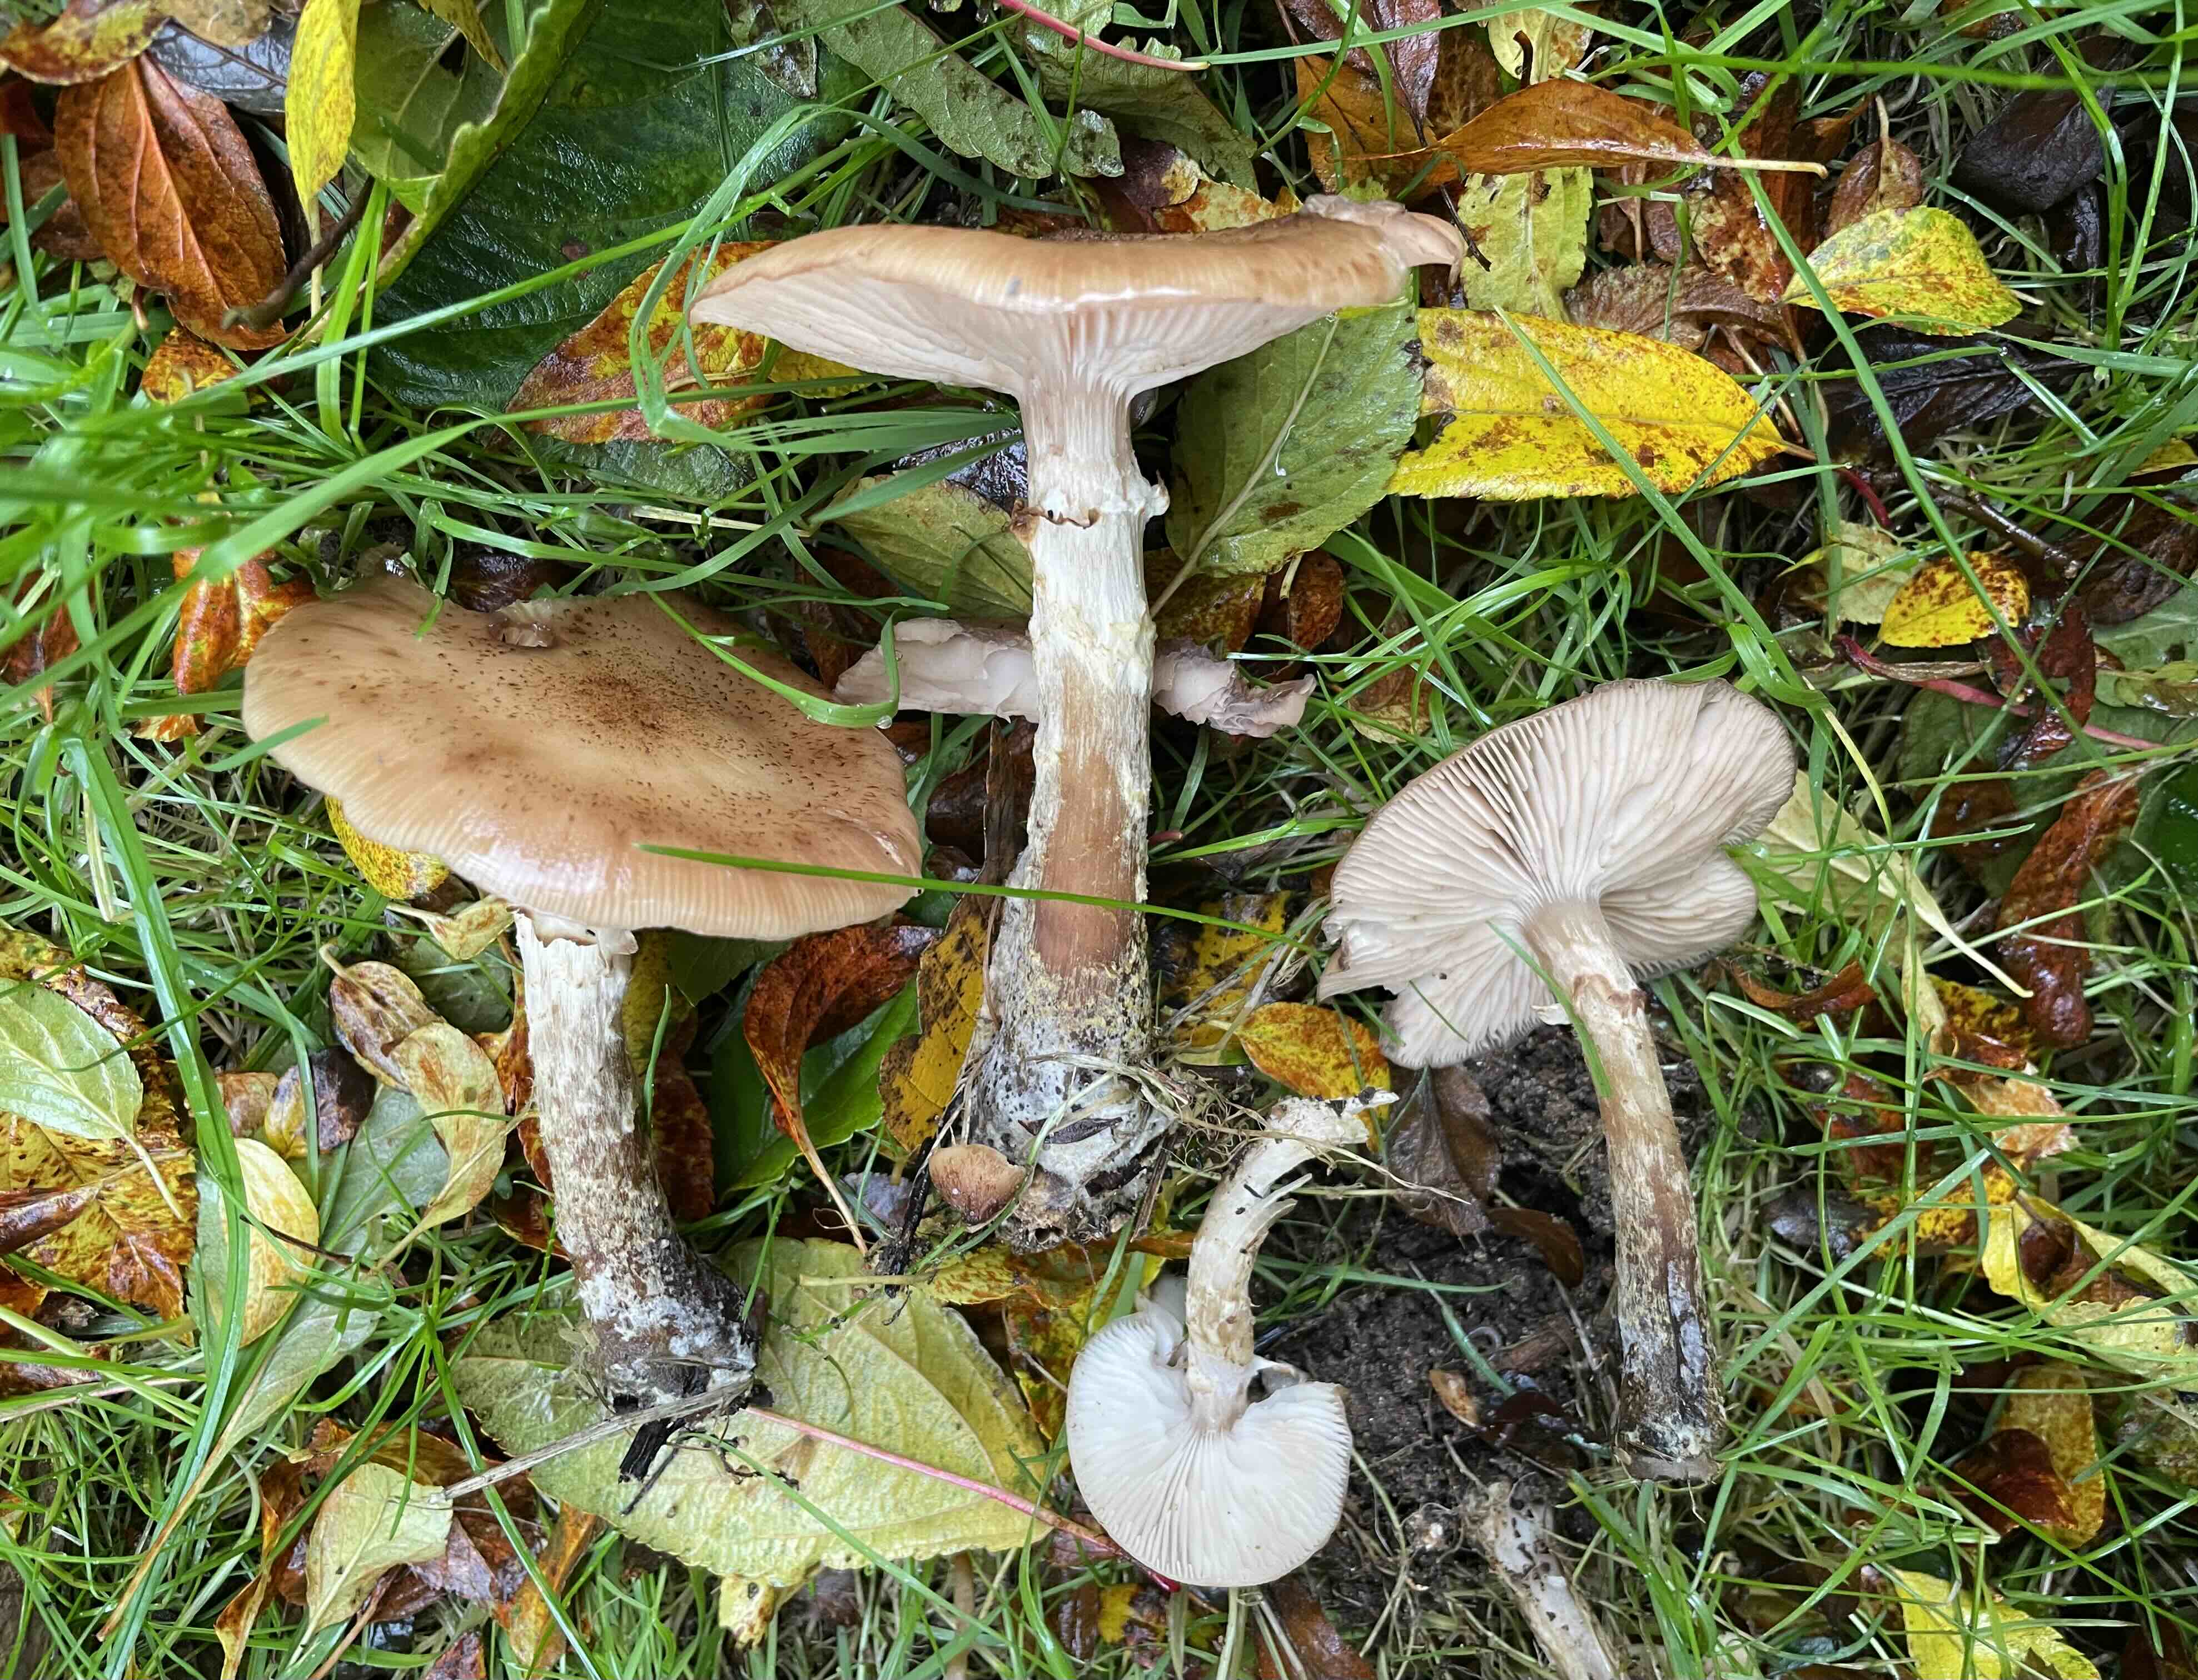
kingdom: Fungi
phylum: Basidiomycota
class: Agaricomycetes
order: Agaricales
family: Physalacriaceae
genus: Armillaria
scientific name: Armillaria lutea
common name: køllestokket honningsvamp
